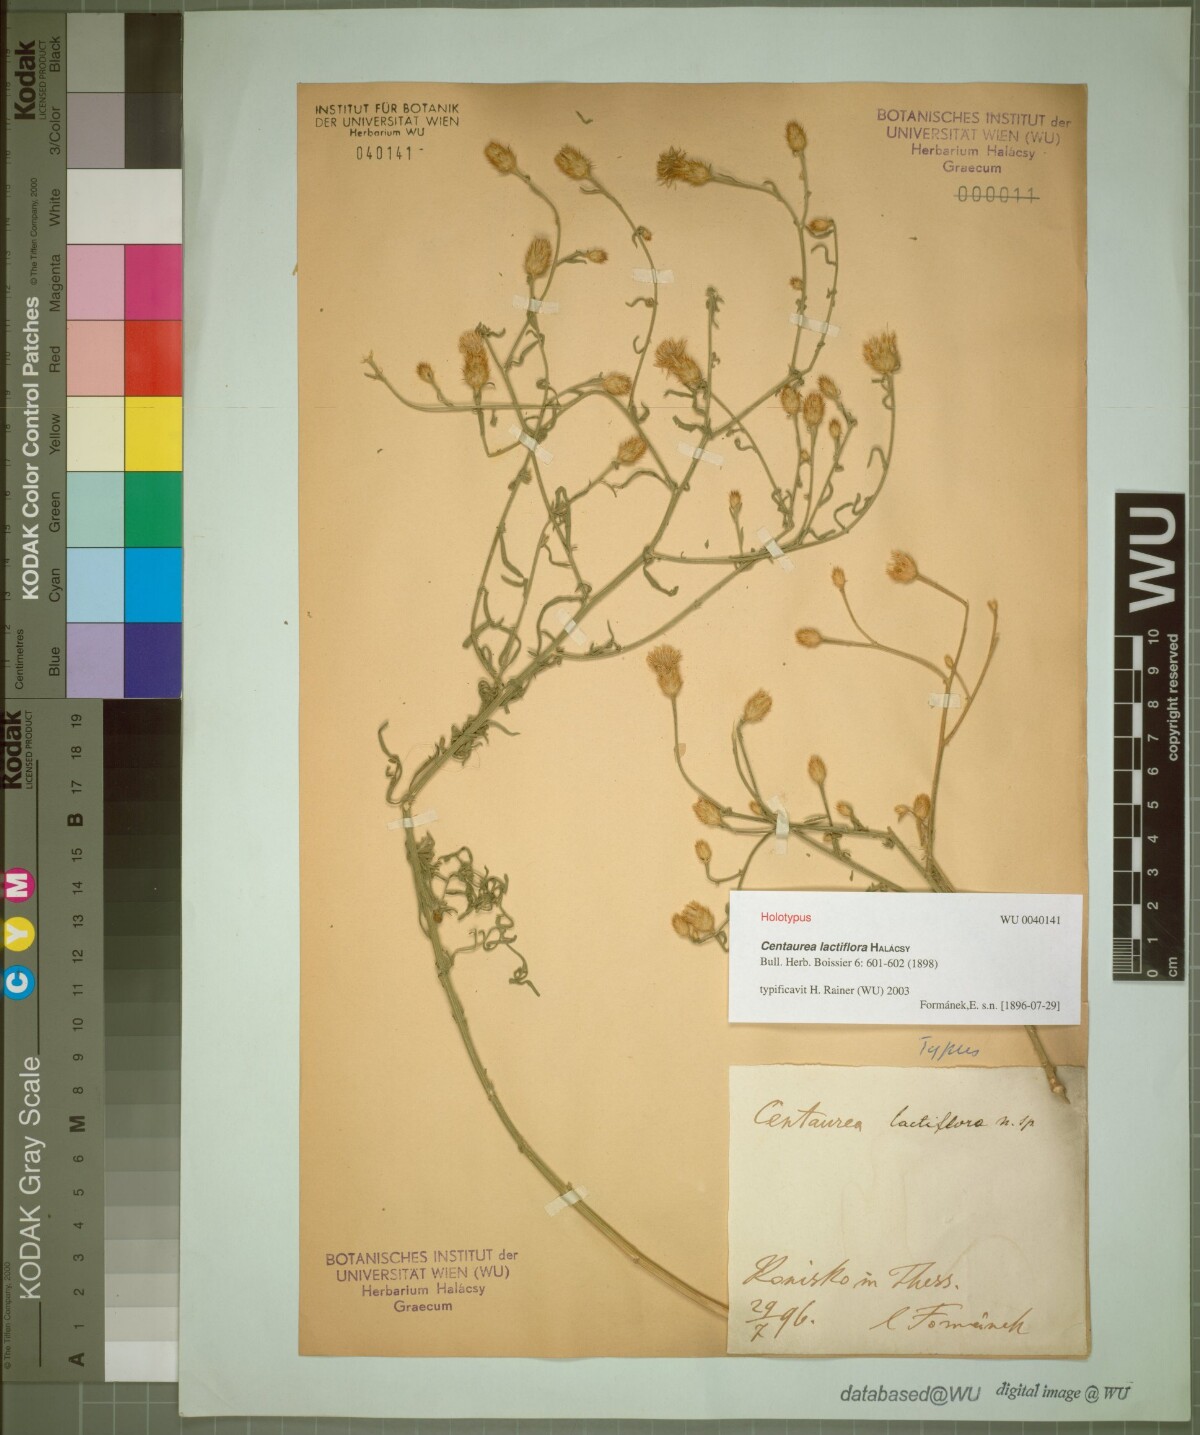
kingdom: Plantae
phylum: Tracheophyta
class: Magnoliopsida
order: Asterales
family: Asteraceae
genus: Centaurea
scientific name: Centaurea lactiflora
